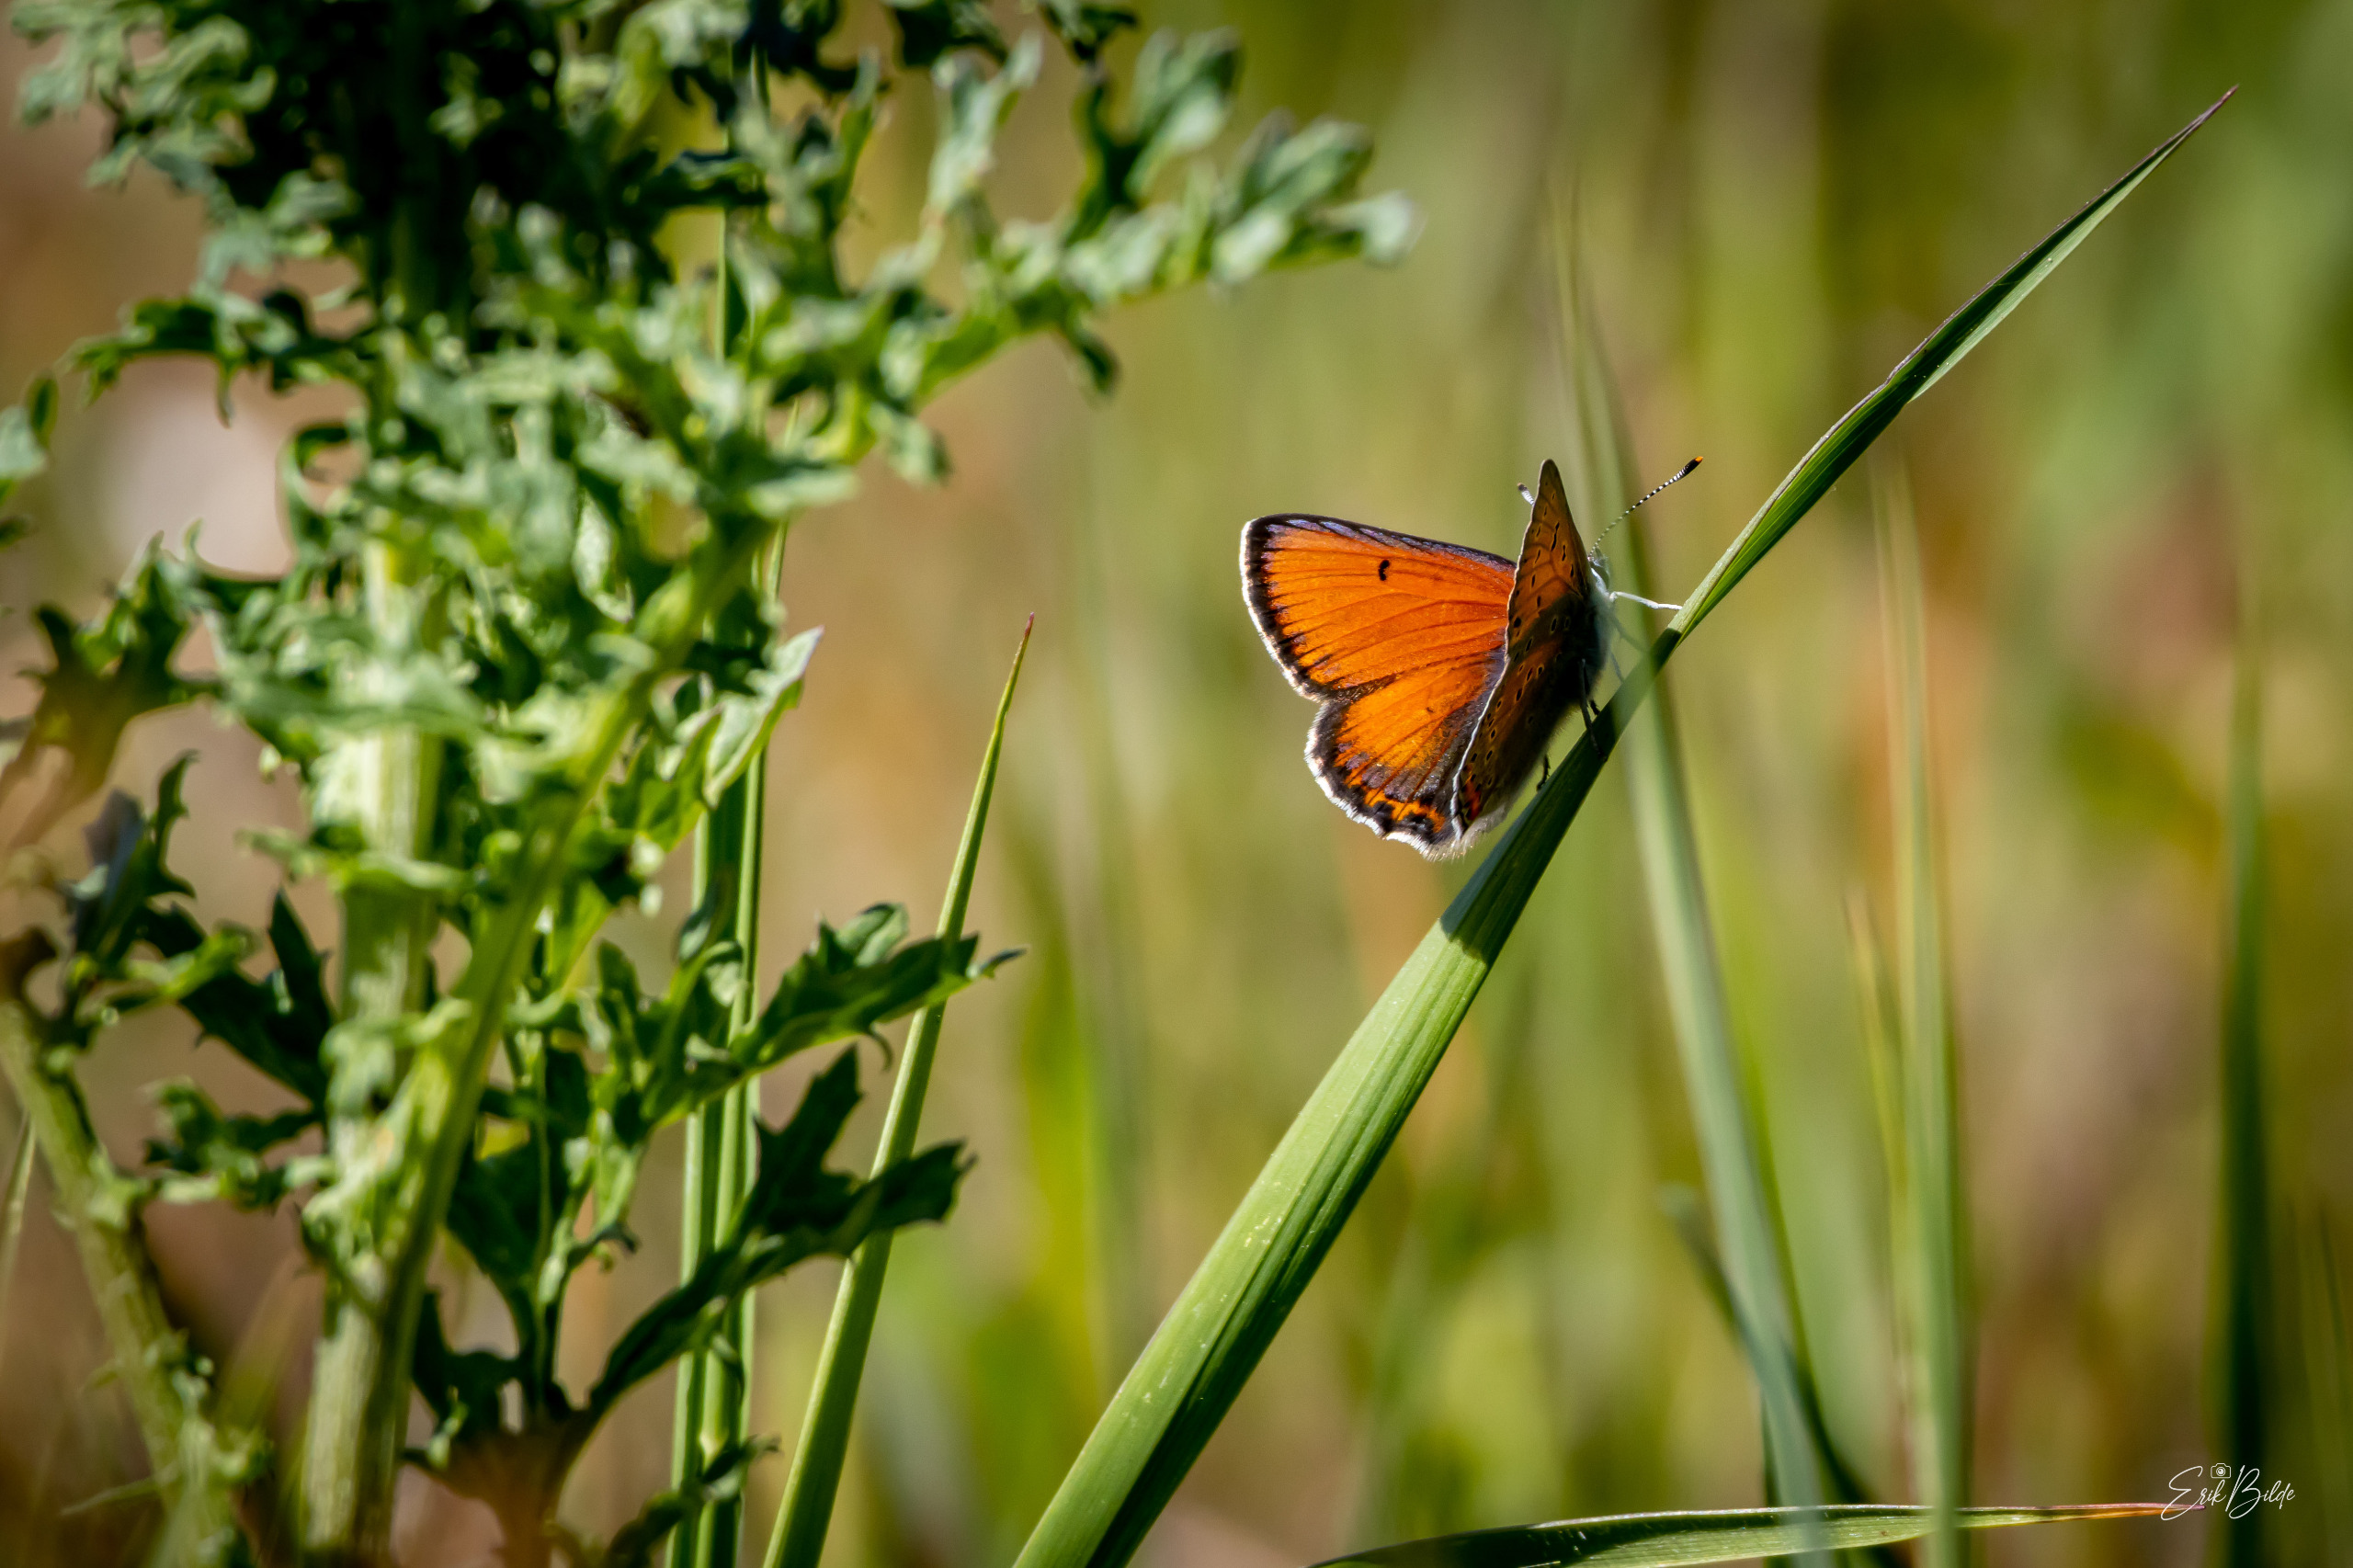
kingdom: Animalia
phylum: Arthropoda
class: Insecta
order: Lepidoptera
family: Lycaenidae
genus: Palaeochrysophanus
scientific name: Palaeochrysophanus hippothoe
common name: Violetrandet ildfugl
